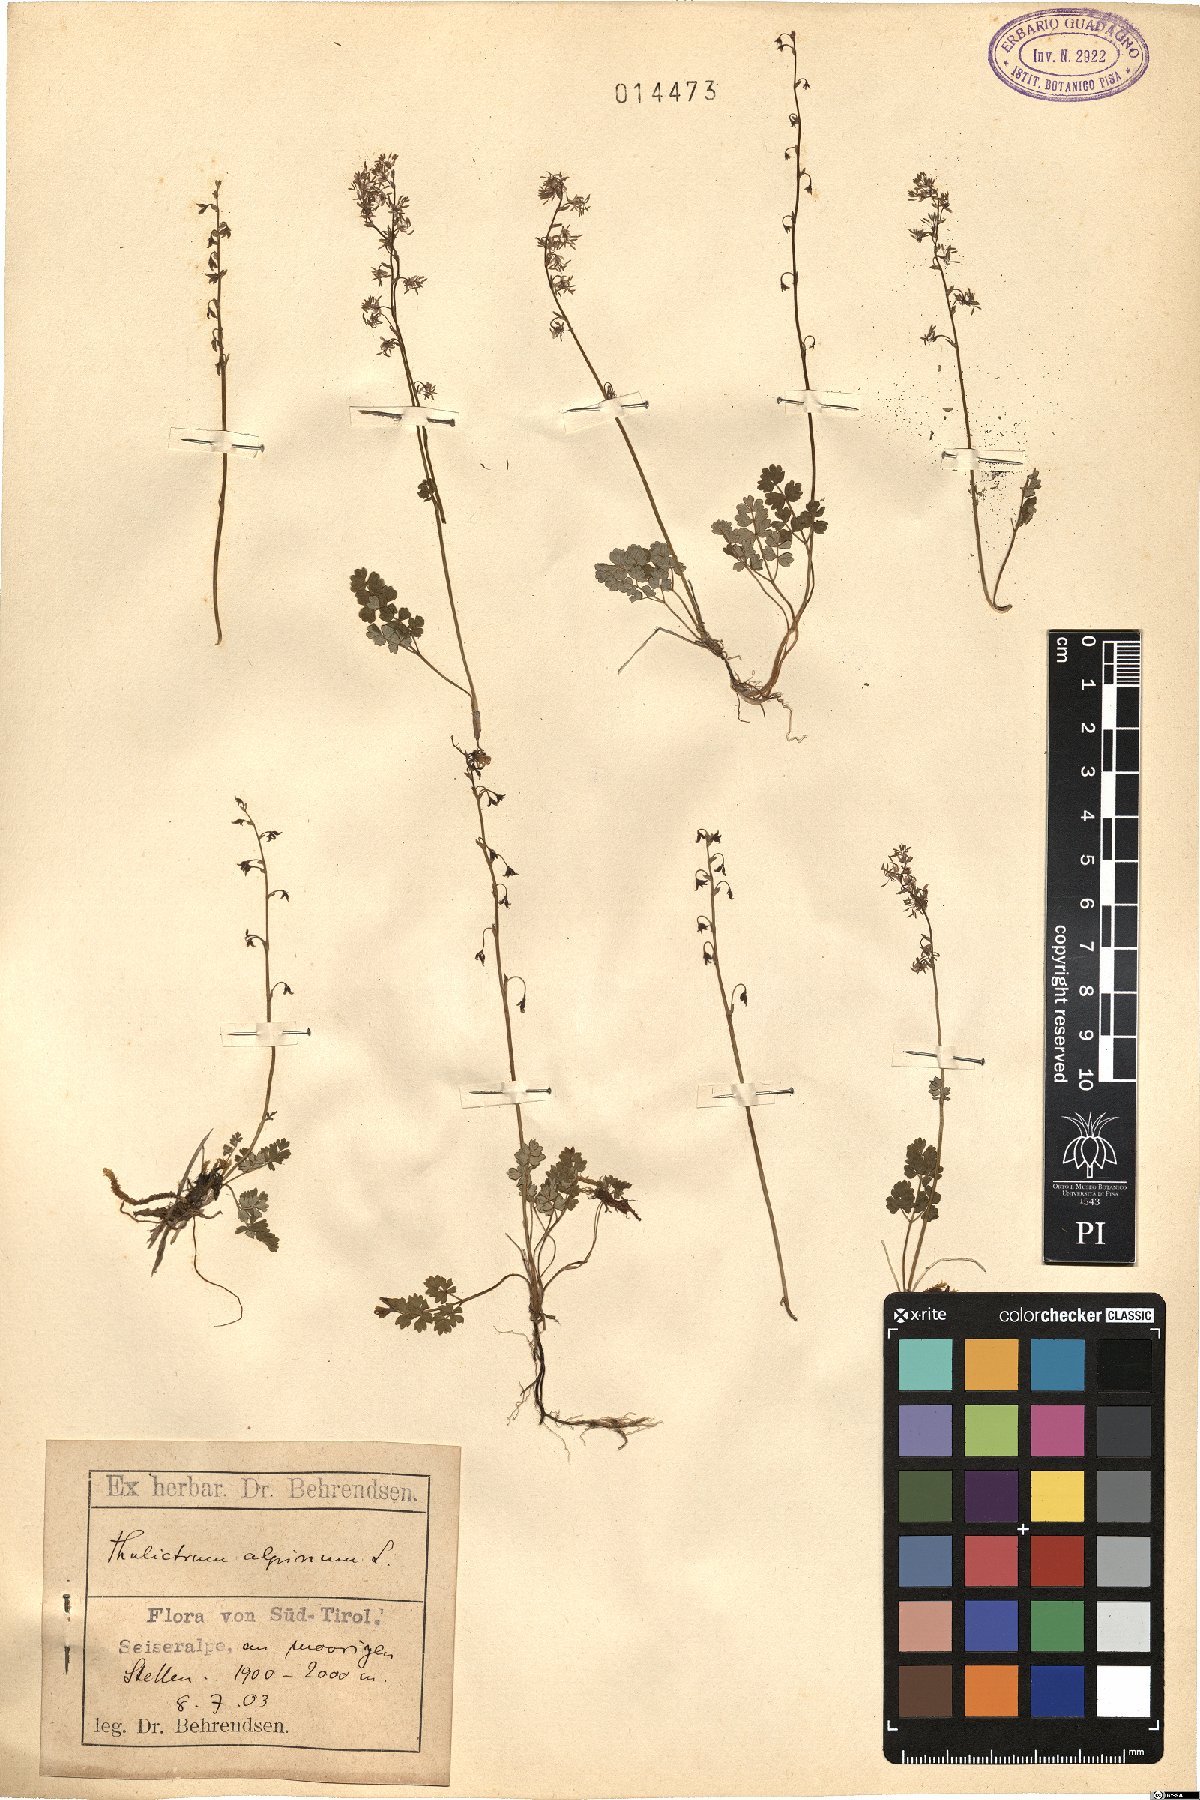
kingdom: Plantae
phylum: Tracheophyta
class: Magnoliopsida
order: Ranunculales
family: Ranunculaceae
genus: Thalictrum
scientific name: Thalictrum alpinum
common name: Alpine meadow-rue
